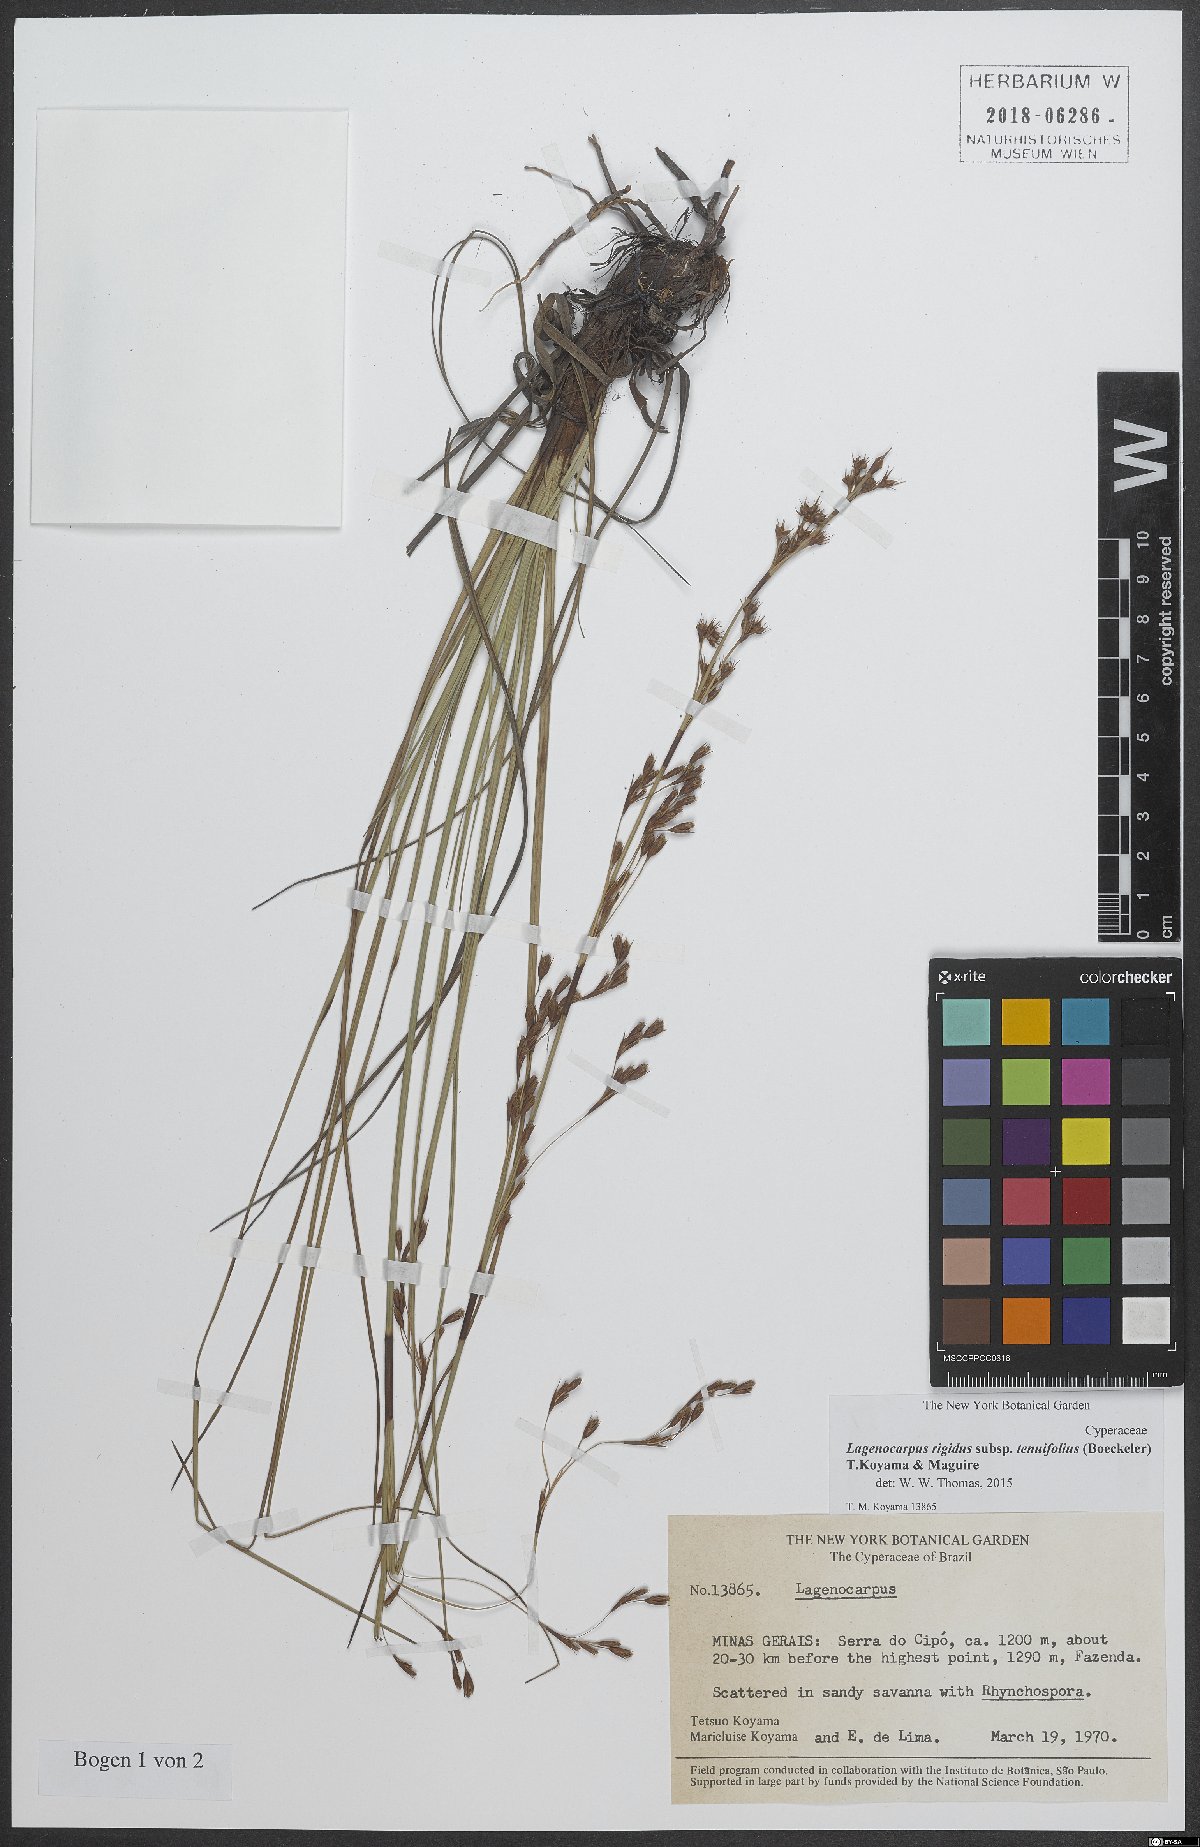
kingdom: Plantae
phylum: Tracheophyta
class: Liliopsida
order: Poales
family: Cyperaceae
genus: Lagenocarpus
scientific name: Lagenocarpus rigidus
